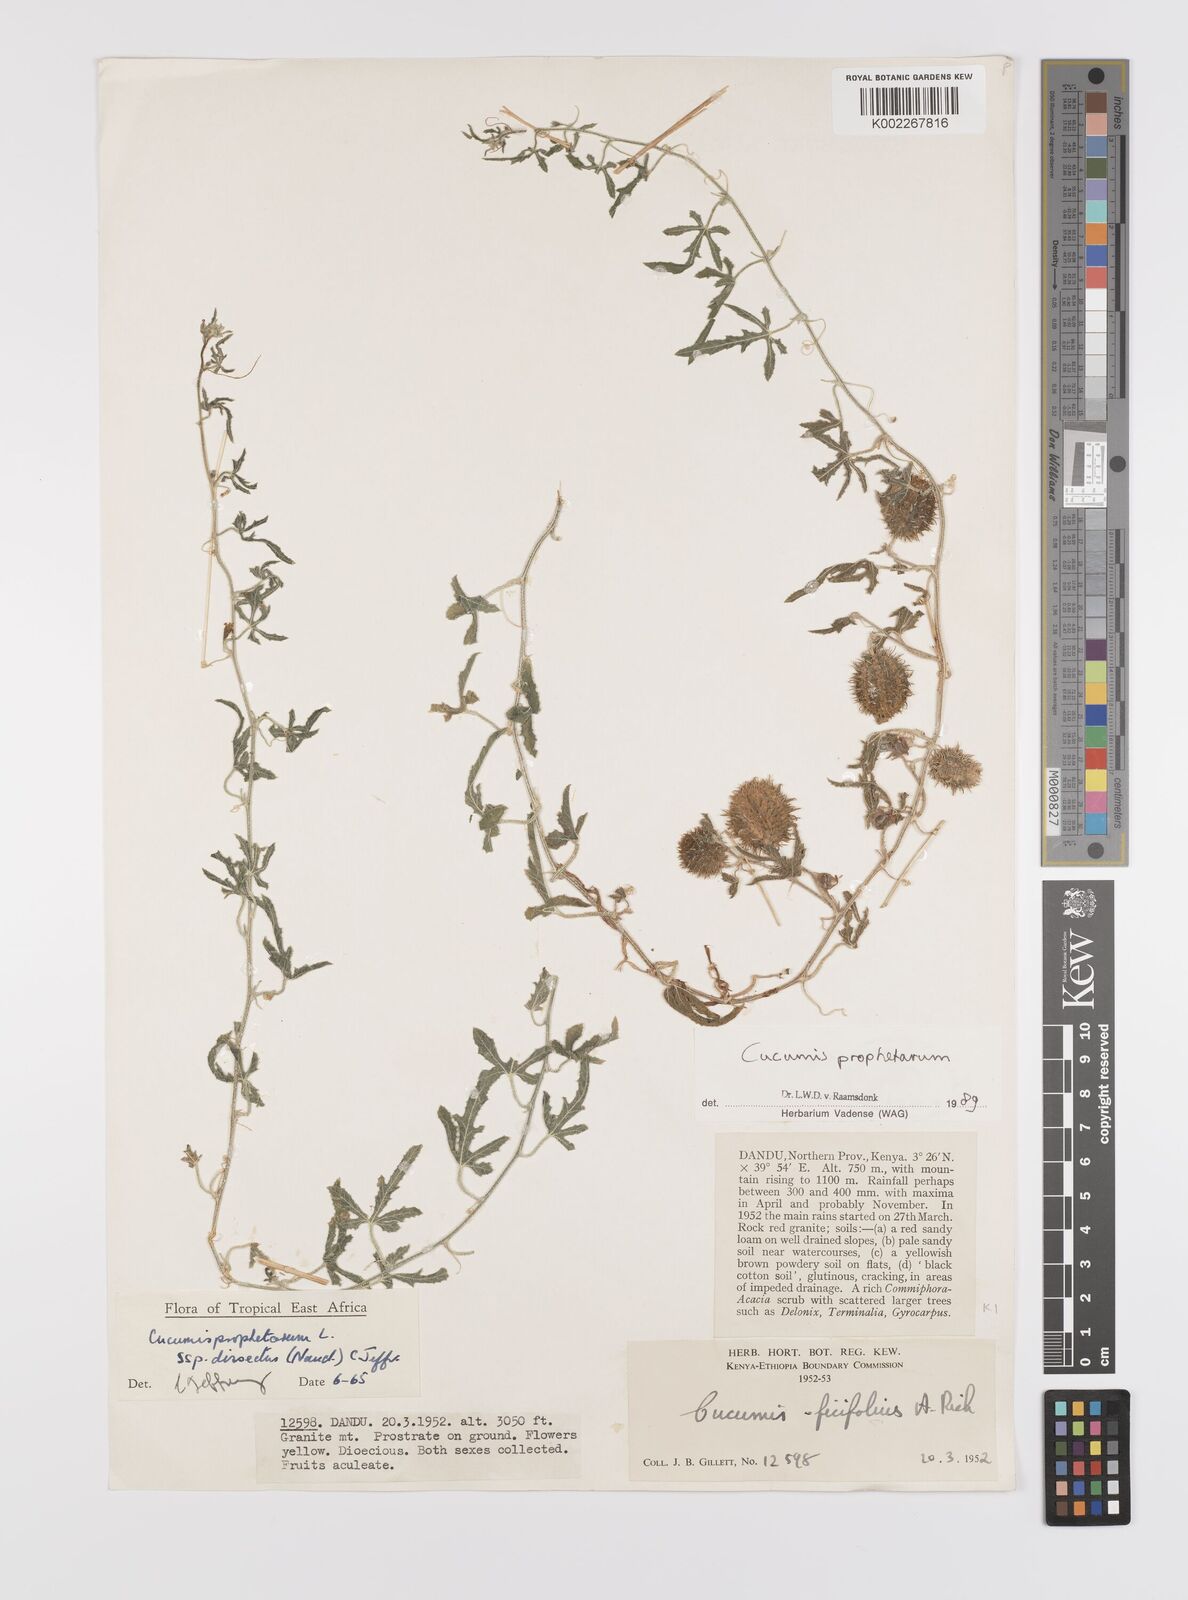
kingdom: Plantae
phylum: Tracheophyta
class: Magnoliopsida
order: Cucurbitales
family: Cucurbitaceae
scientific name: Cucurbitaceae
